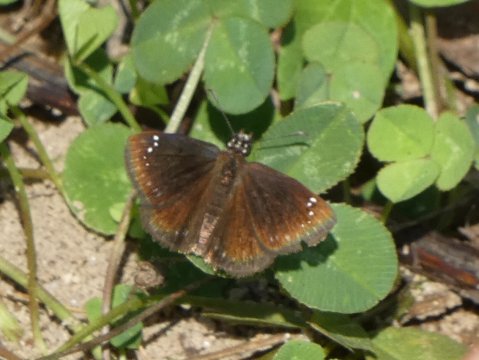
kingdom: Animalia
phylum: Arthropoda
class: Insecta
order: Lepidoptera
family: Hesperiidae
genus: Pholisora
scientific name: Pholisora catullus
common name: Common Sootywing
